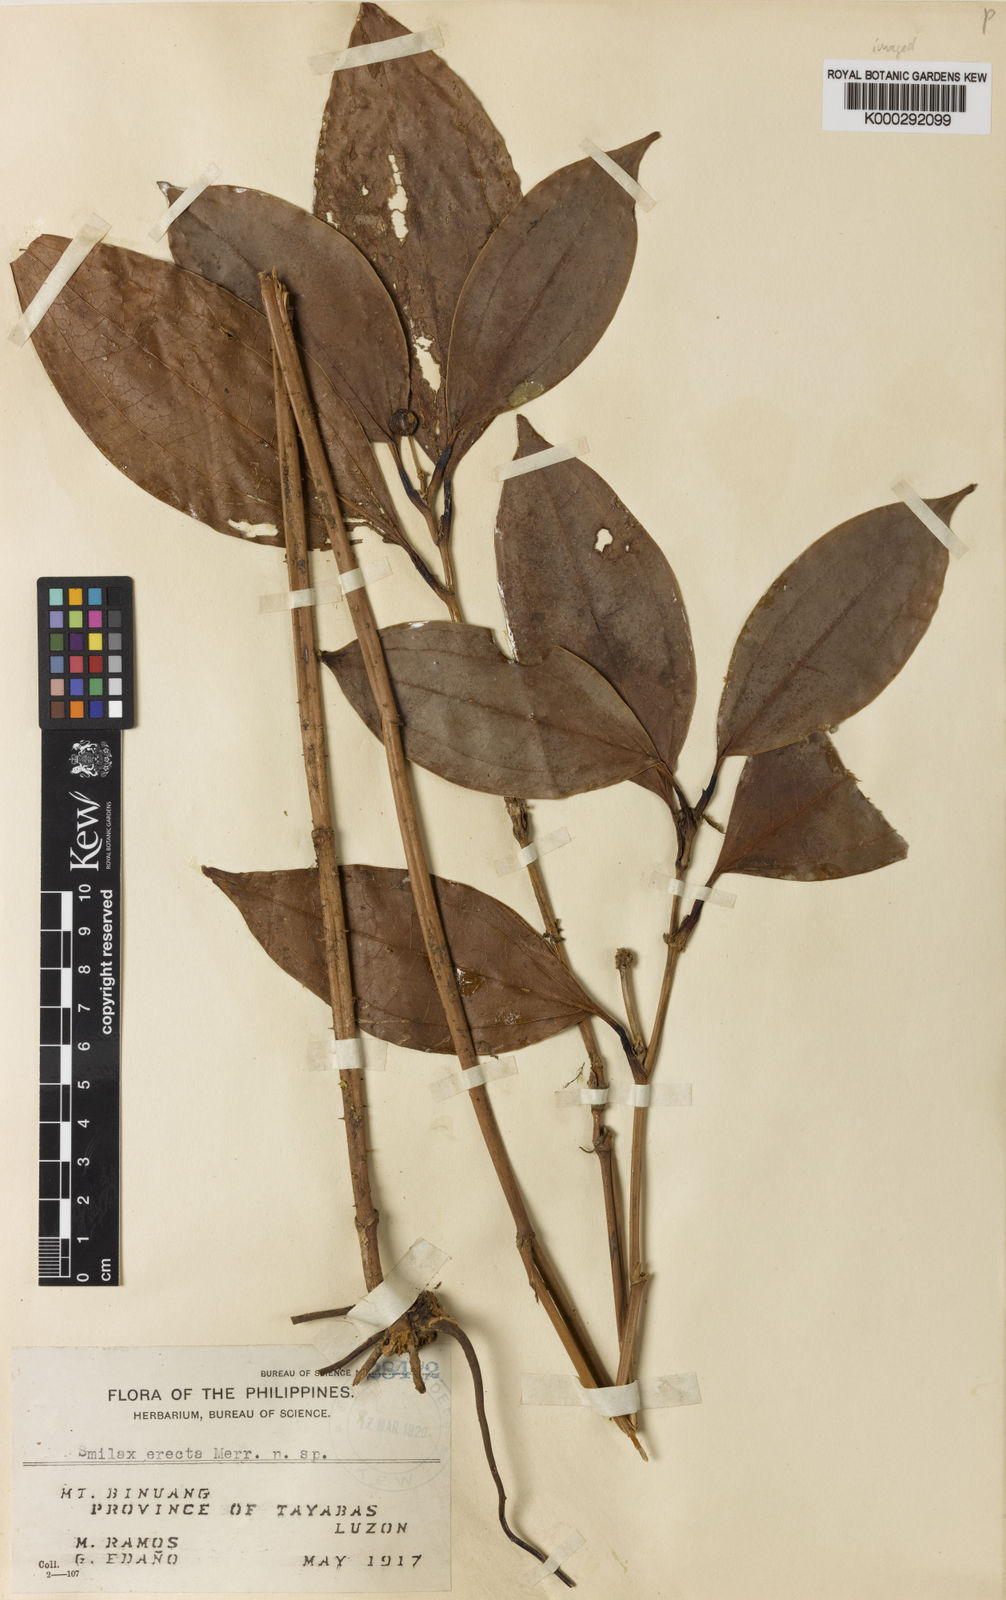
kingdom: Plantae
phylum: Tracheophyta
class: Liliopsida
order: Liliales
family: Smilacaceae
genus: Smilax
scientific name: Smilax erecta
